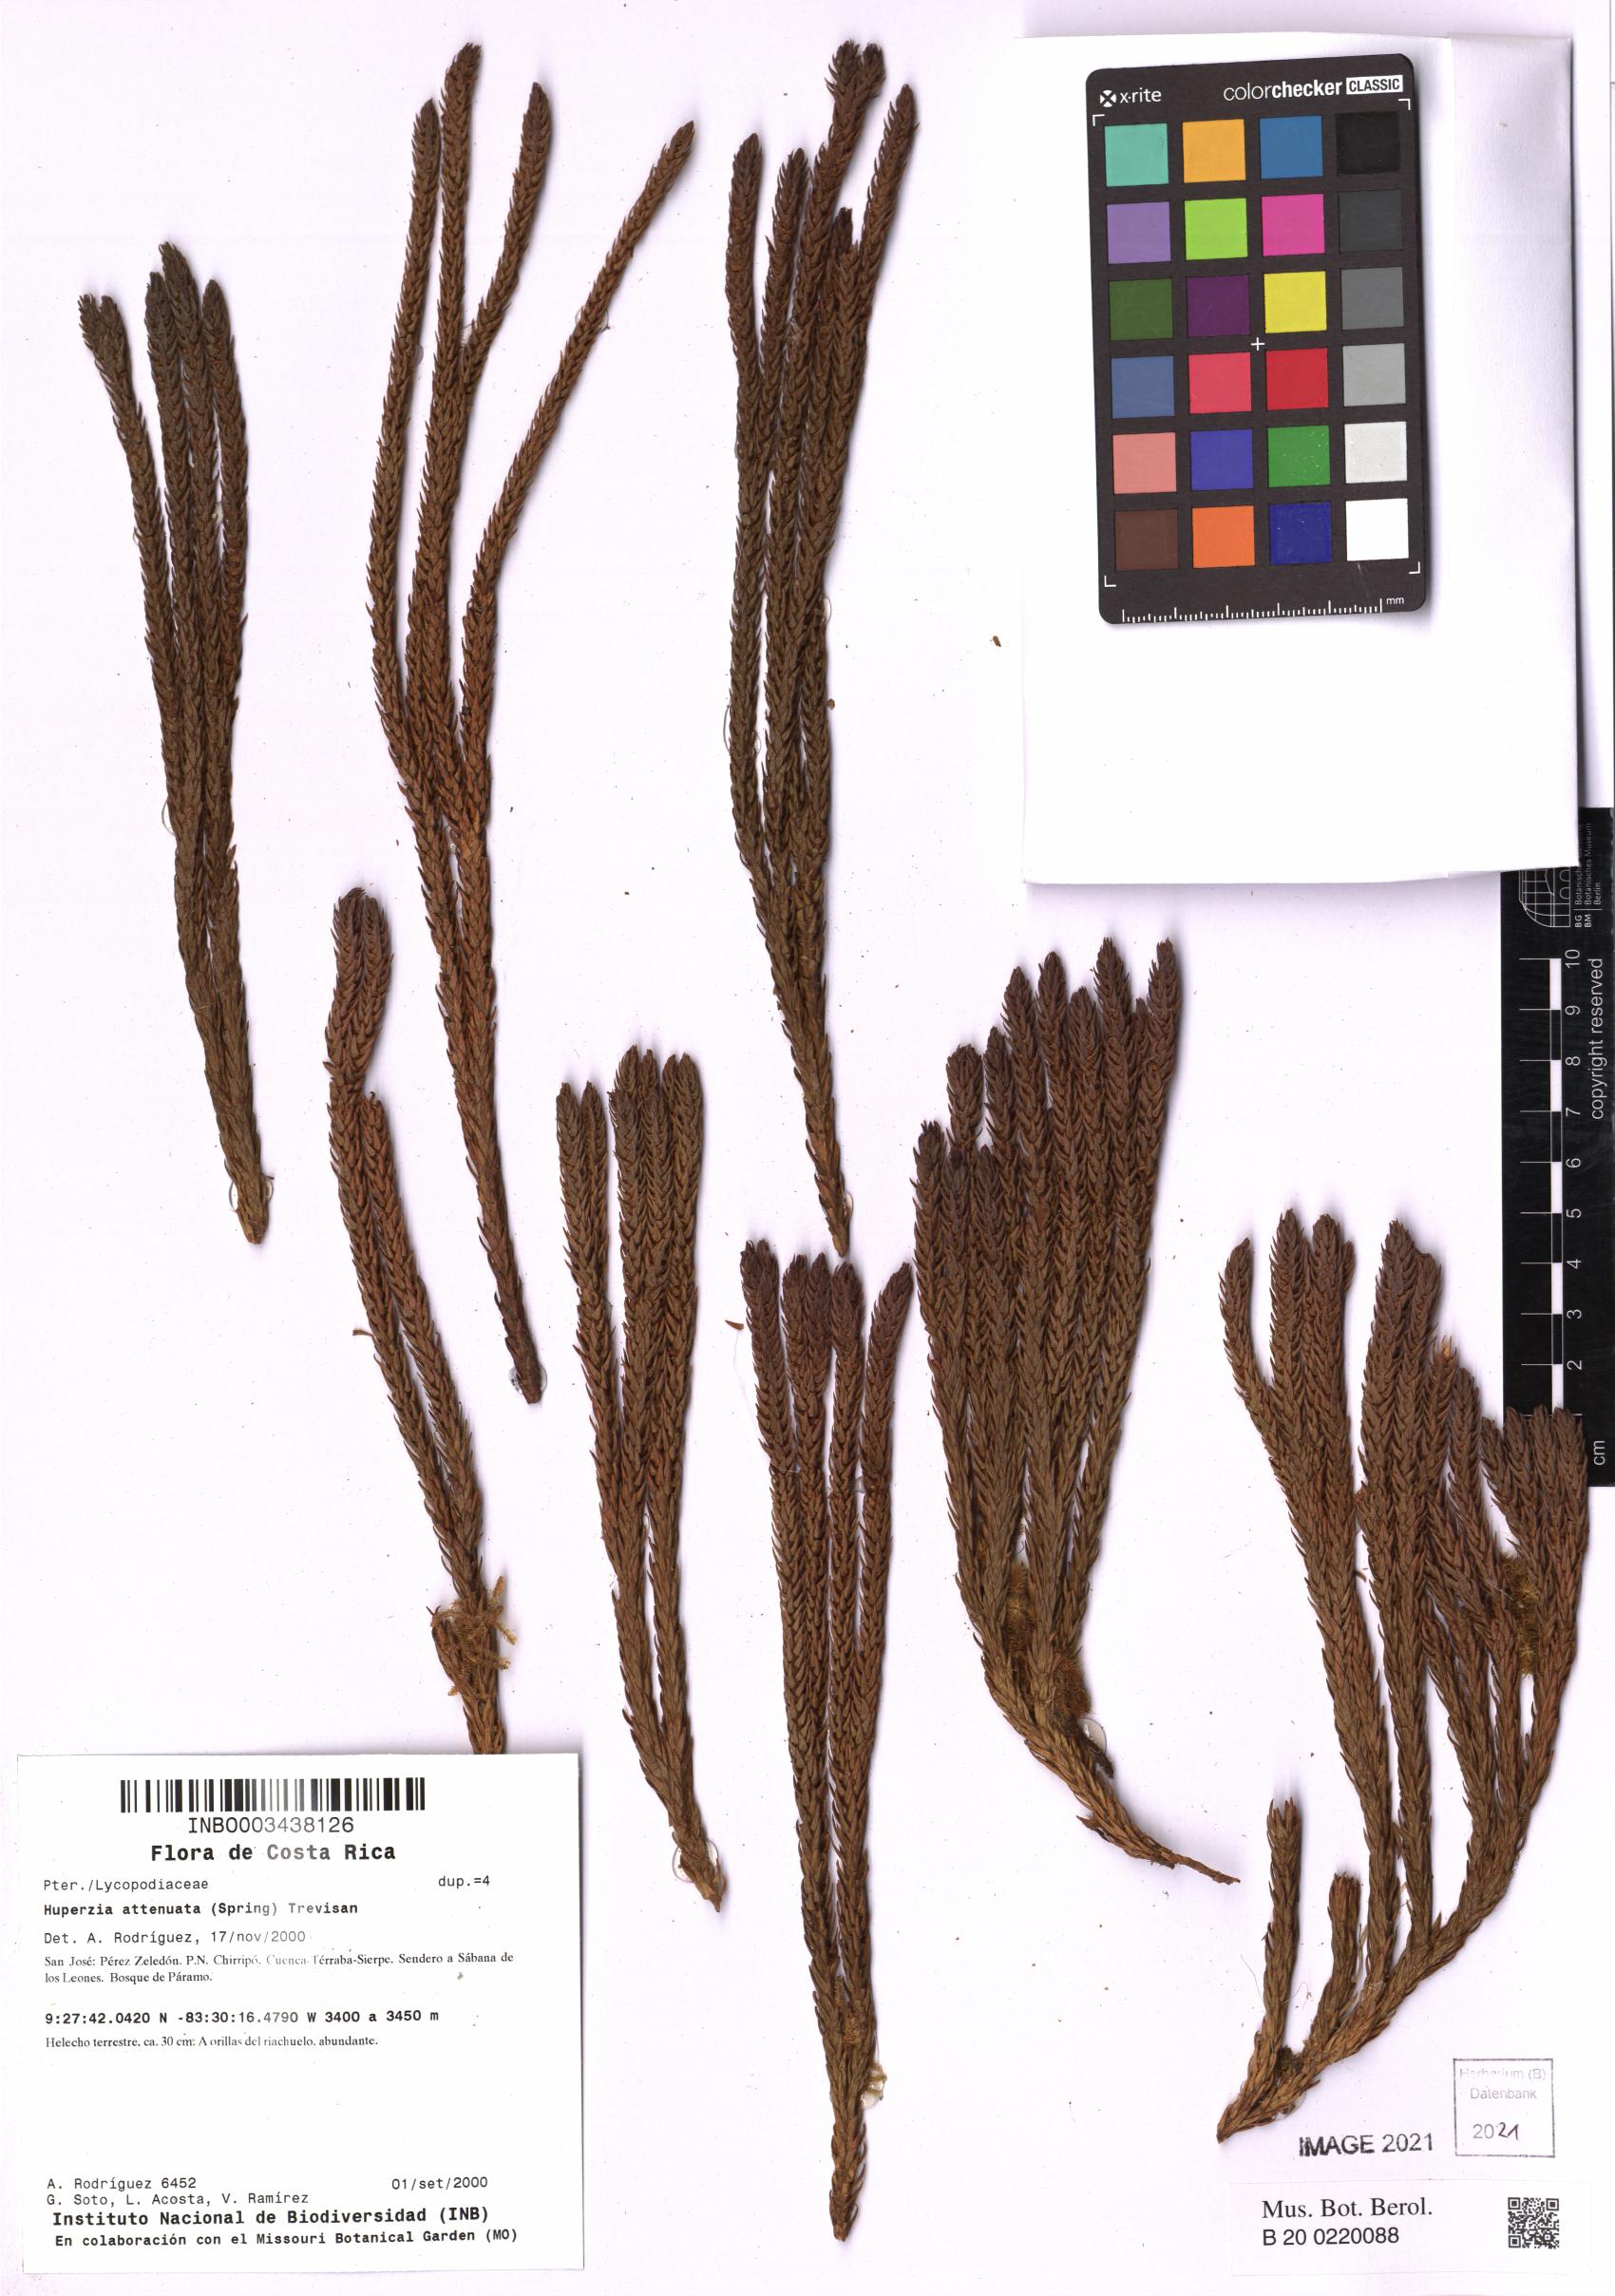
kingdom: Plantae
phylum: Tracheophyta
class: Lycopodiopsida
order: Lycopodiales
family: Lycopodiaceae
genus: Phlegmariurus
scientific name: Phlegmariurus attenuatus
